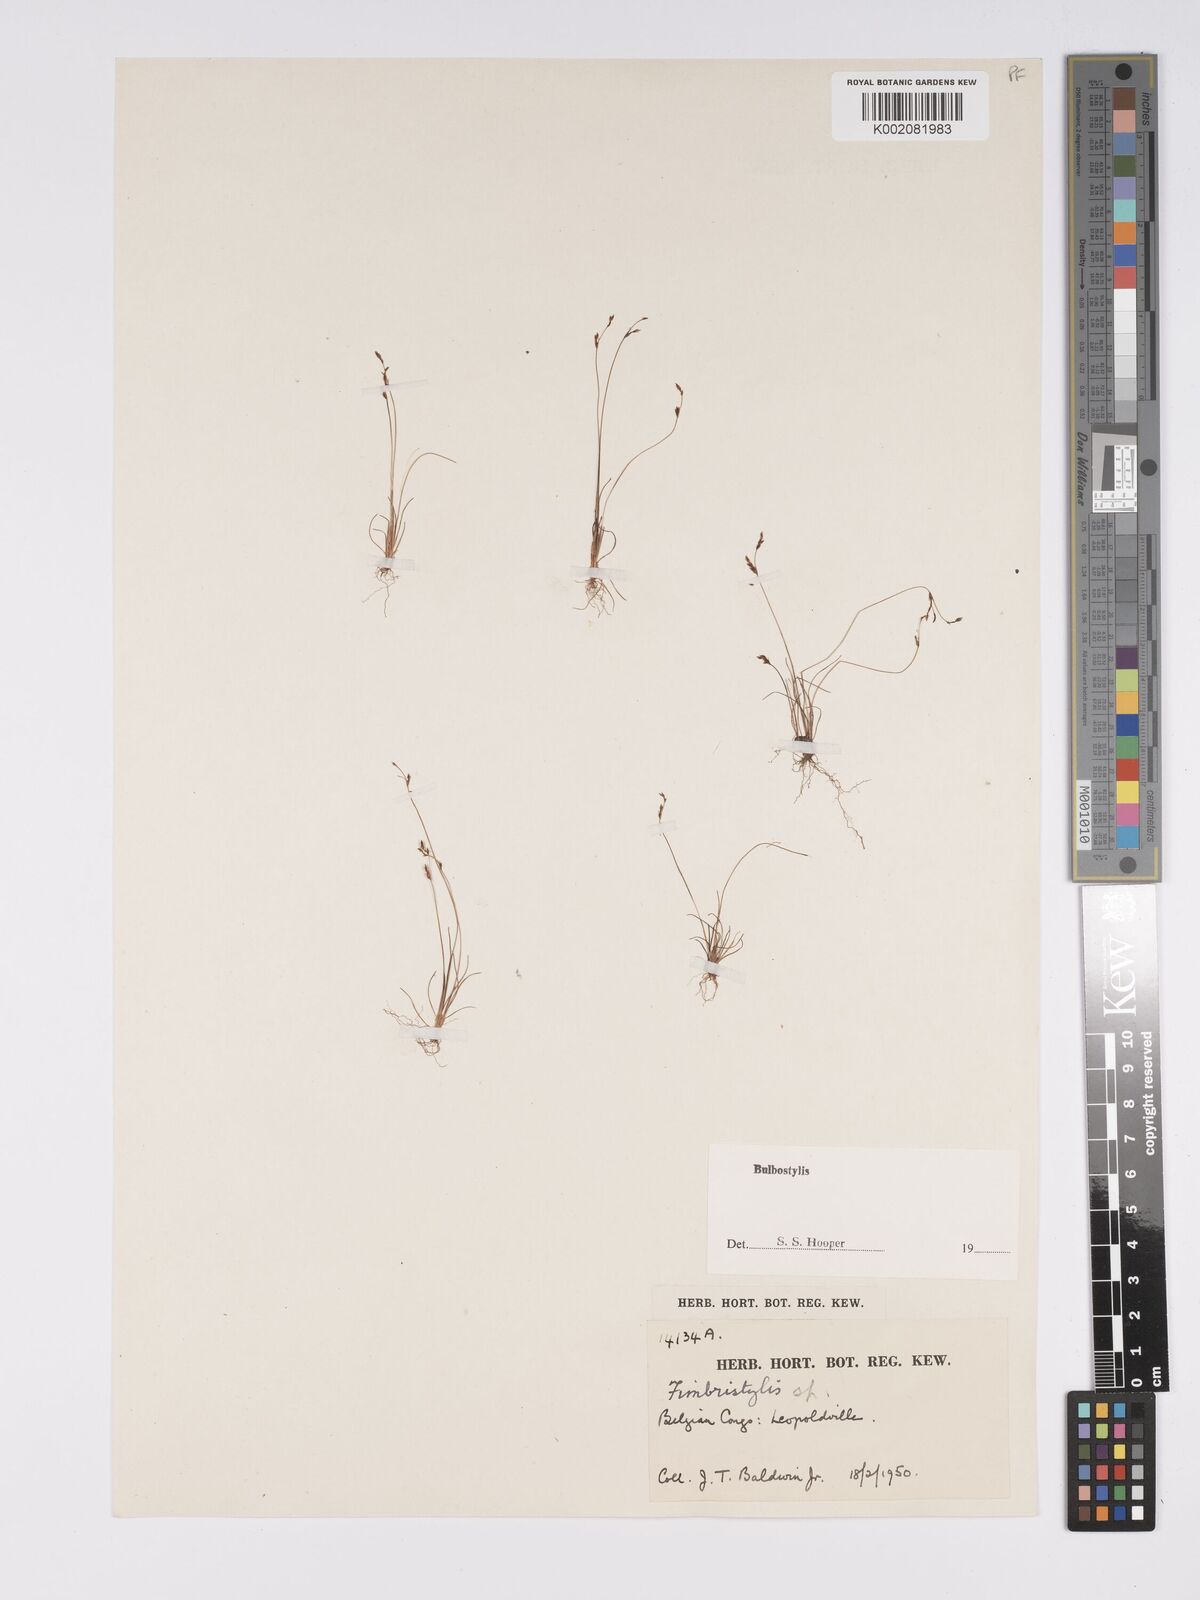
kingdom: Plantae
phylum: Tracheophyta
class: Liliopsida
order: Poales
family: Cyperaceae
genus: Bulbostylis
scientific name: Bulbostylis
